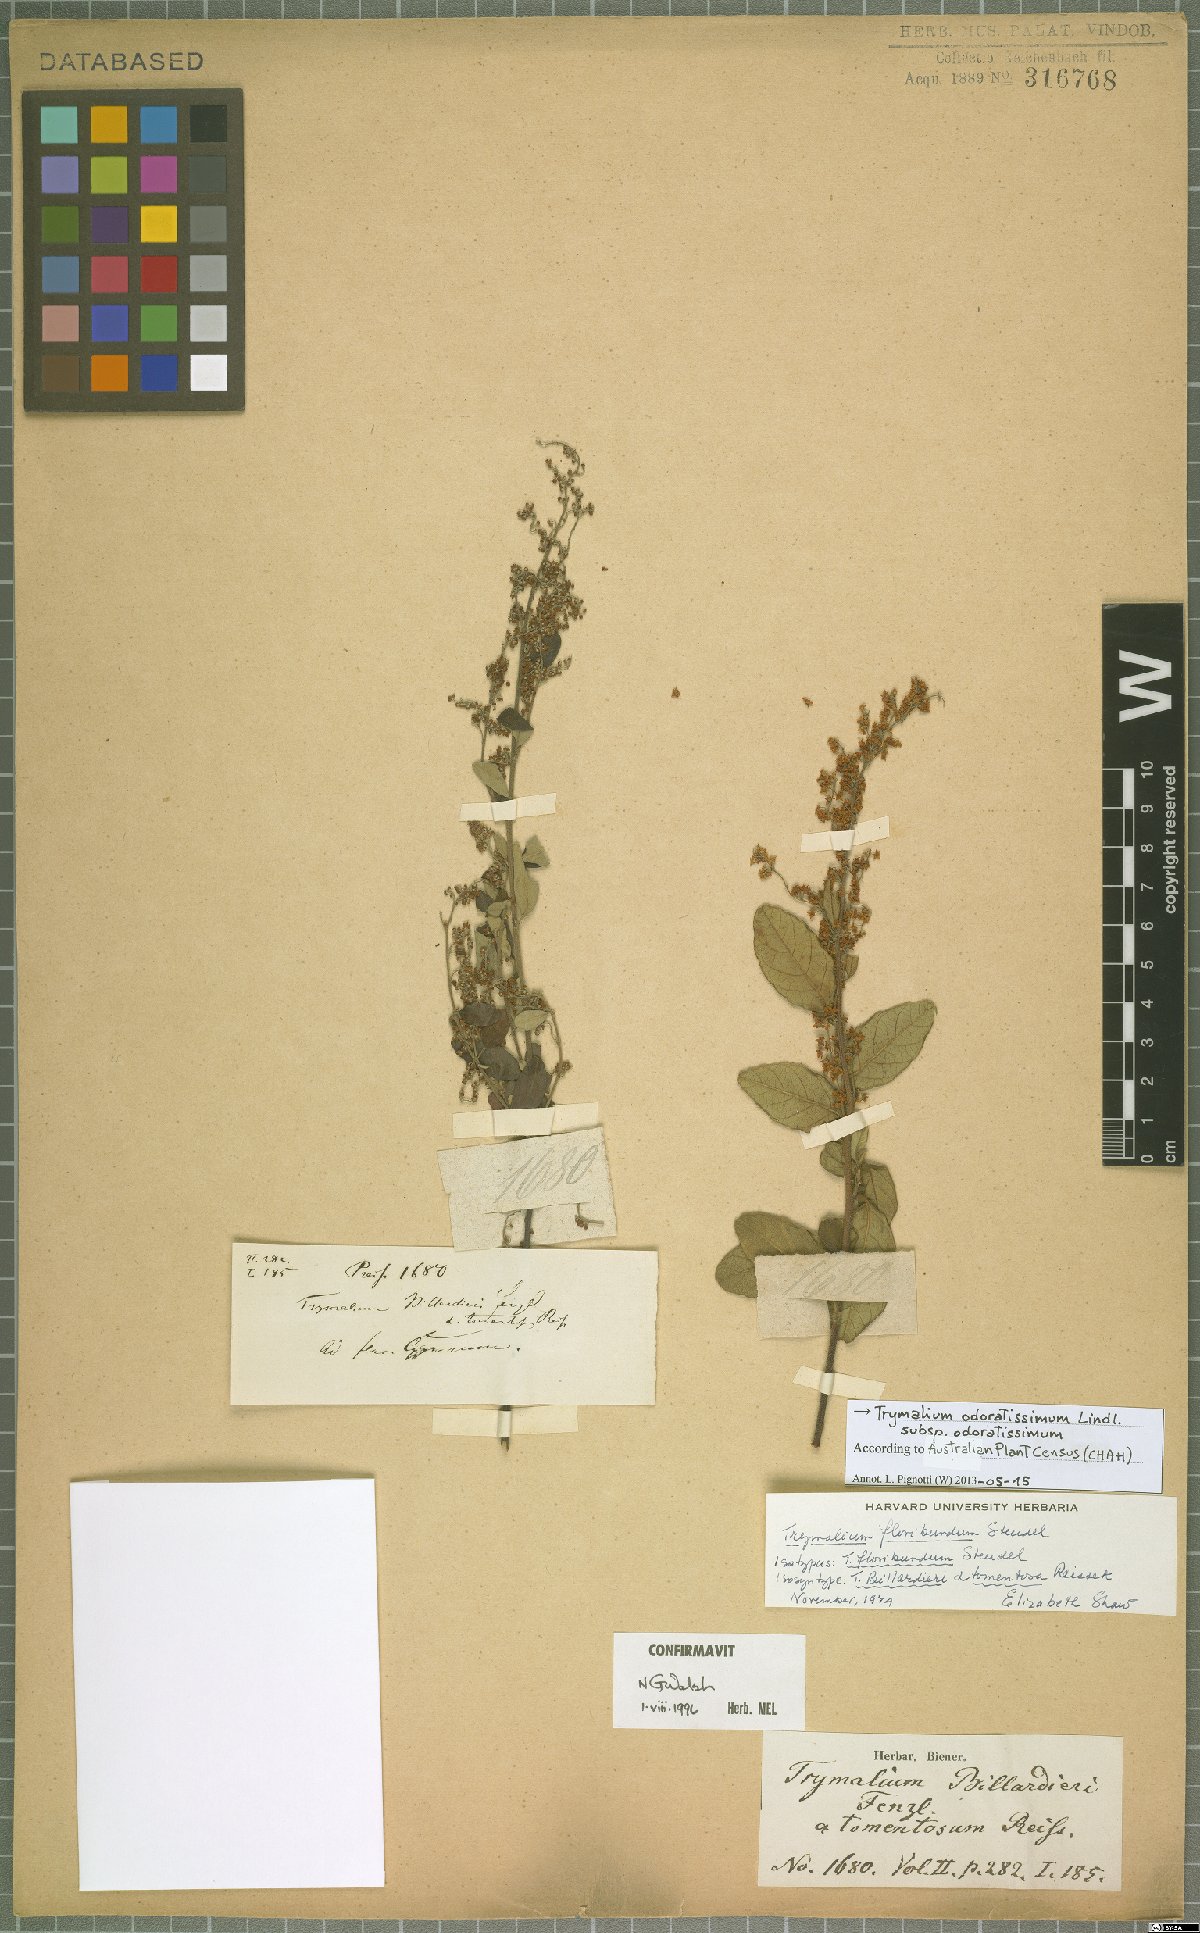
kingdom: Plantae
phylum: Tracheophyta
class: Magnoliopsida
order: Rosales
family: Rhamnaceae
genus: Trymalium
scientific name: Trymalium odoratissimum
